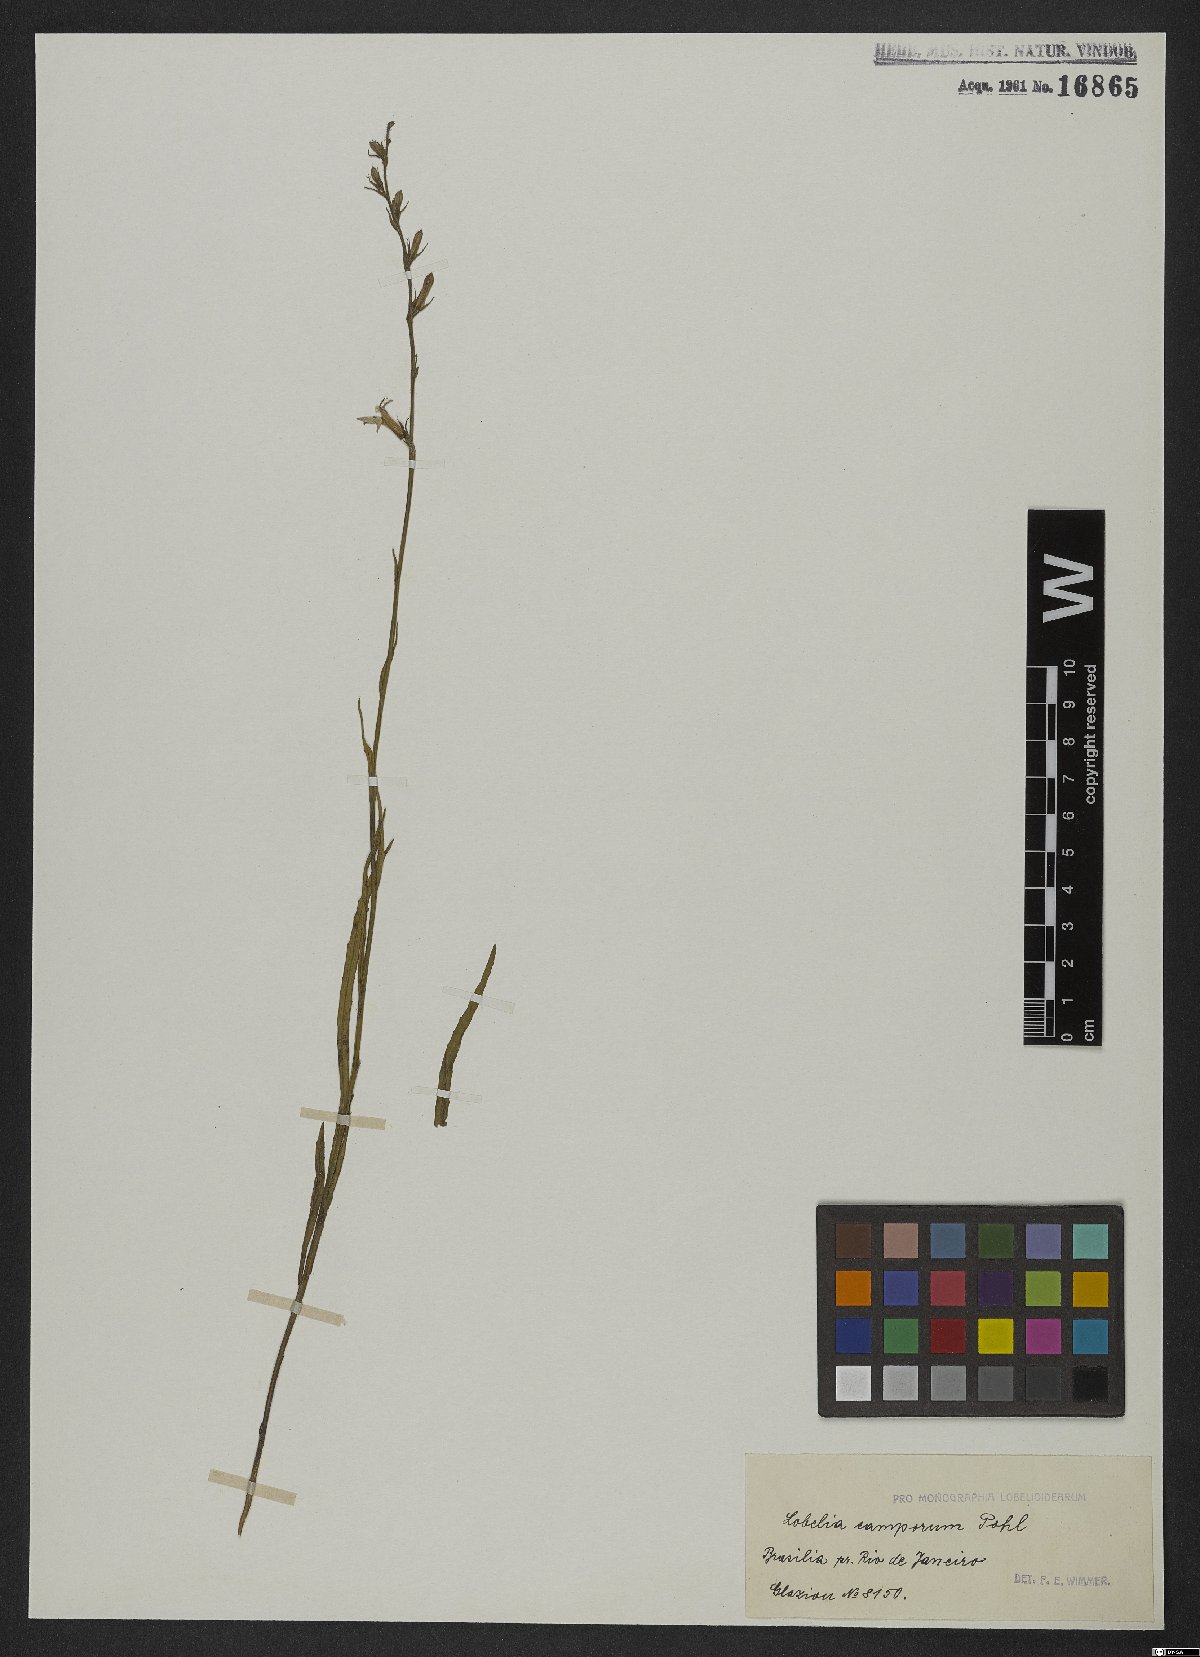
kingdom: Plantae
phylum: Tracheophyta
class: Magnoliopsida
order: Asterales
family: Campanulaceae
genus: Lobelia
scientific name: Lobelia camporum
